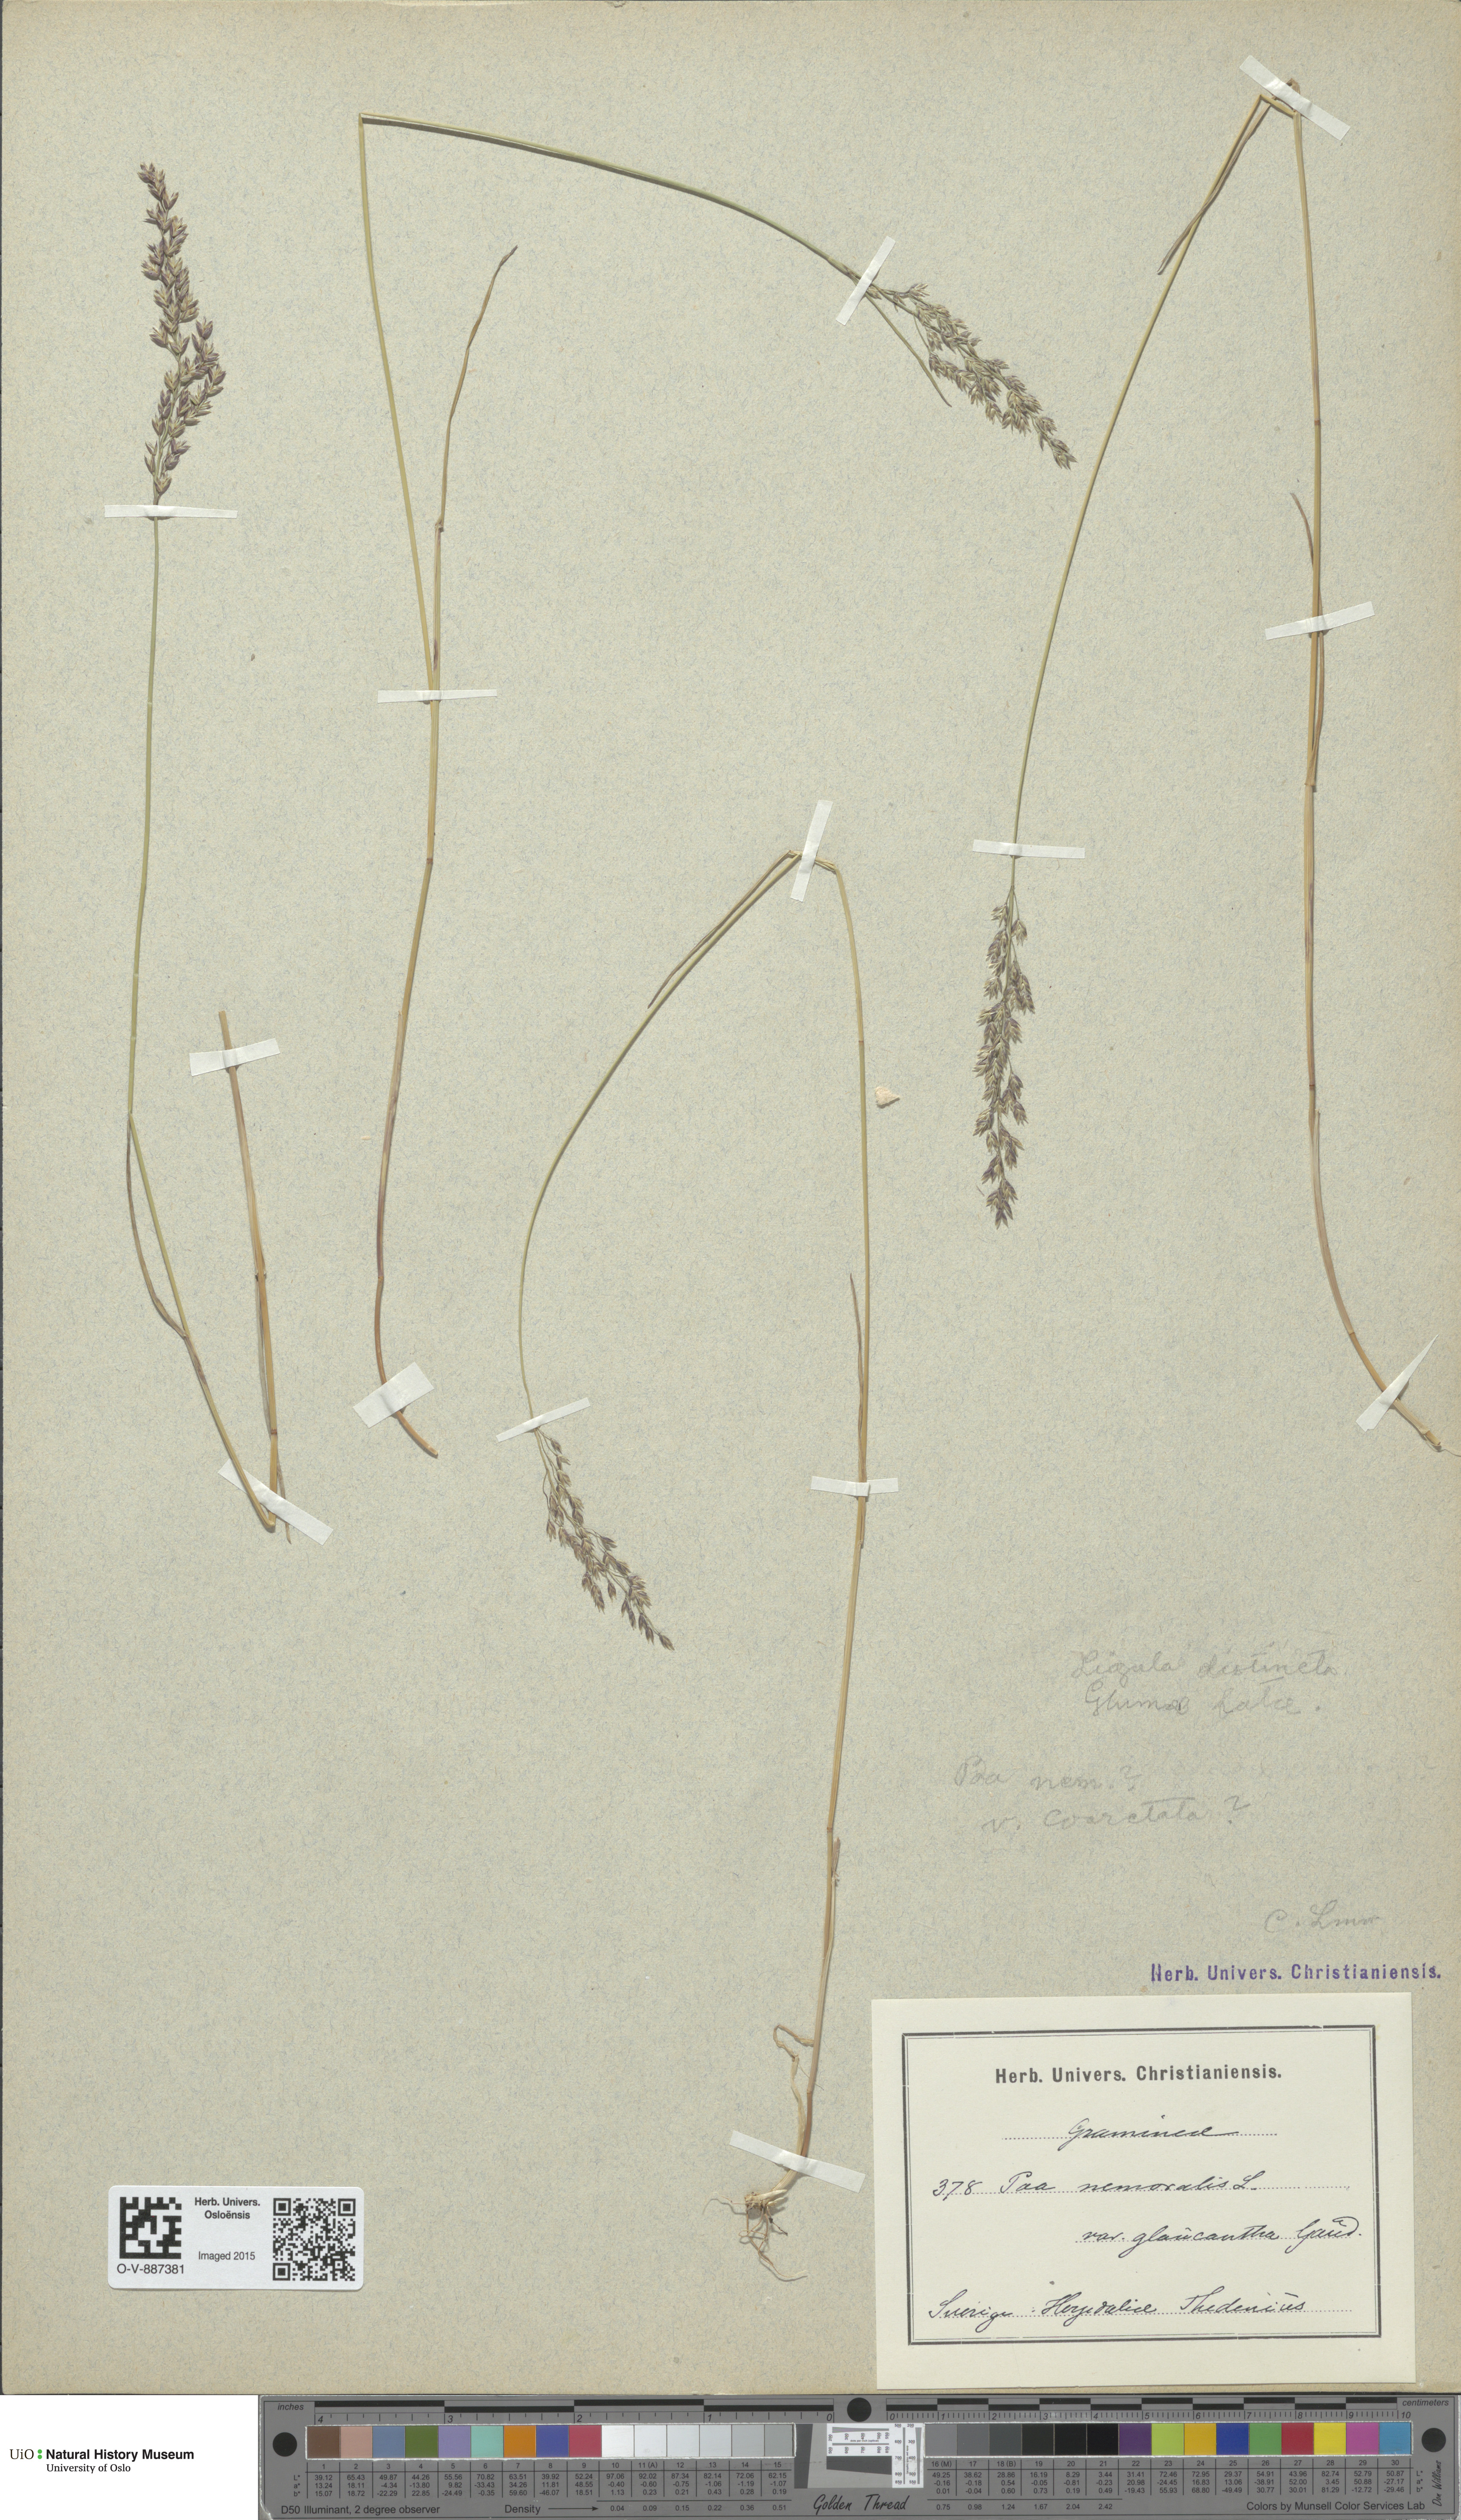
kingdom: Plantae
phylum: Tracheophyta
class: Liliopsida
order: Poales
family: Poaceae
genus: Poa
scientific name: Poa nemoralis
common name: Wood bluegrass
